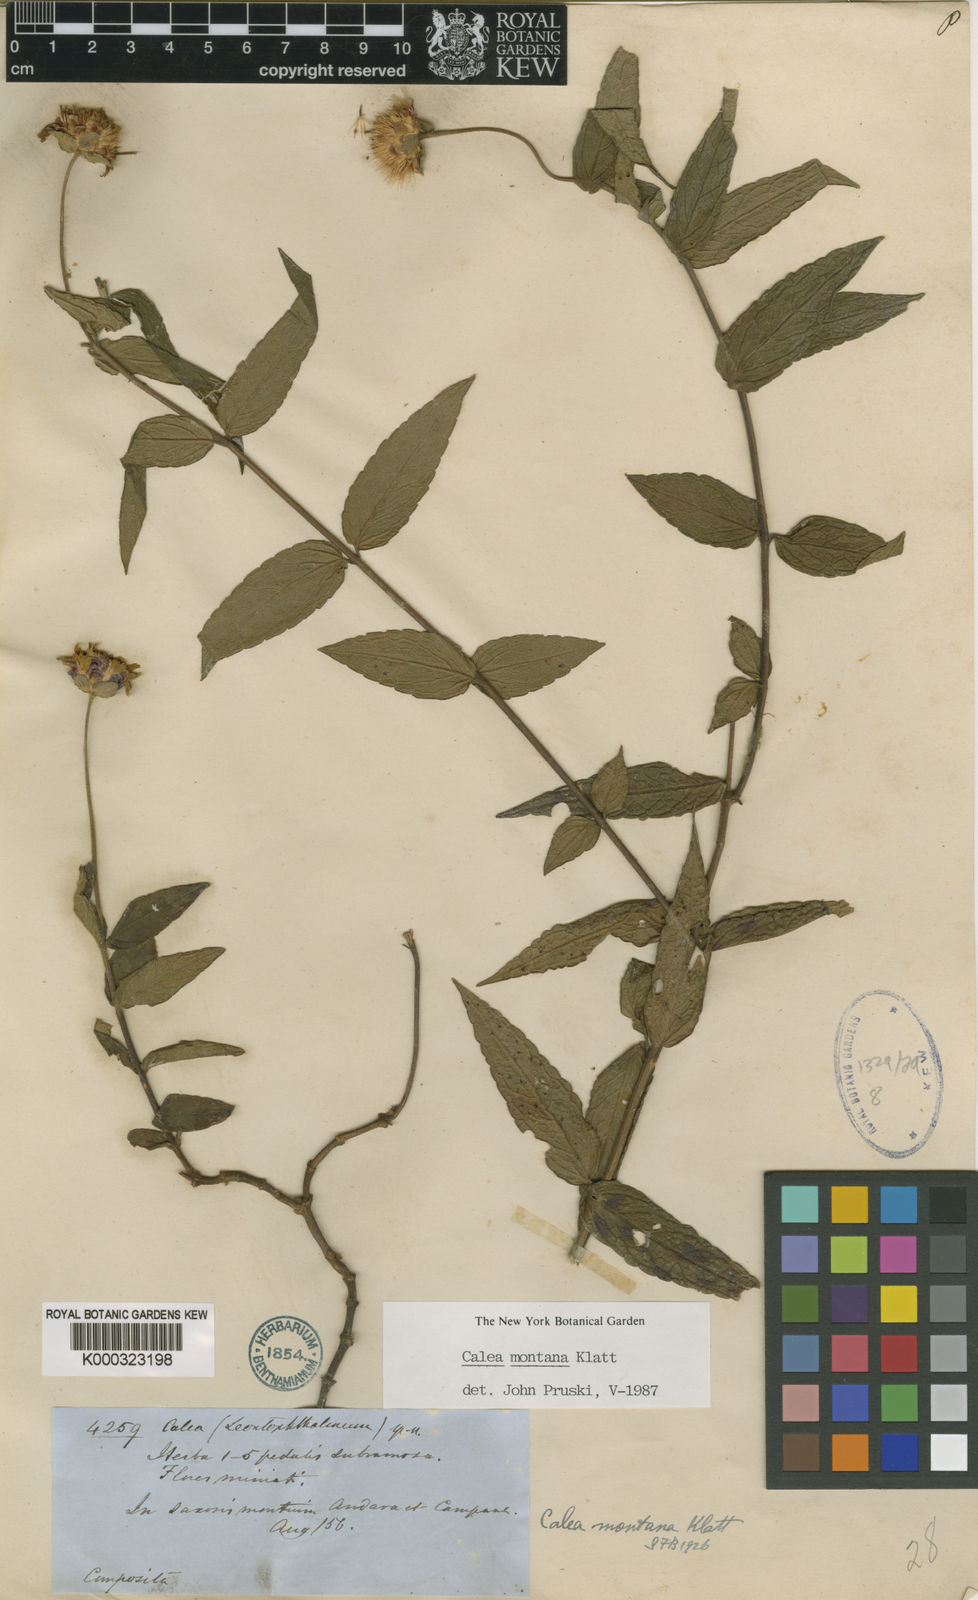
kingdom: Plantae
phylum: Tracheophyta
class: Magnoliopsida
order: Asterales
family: Asteraceae
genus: Calea
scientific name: Calea montana
